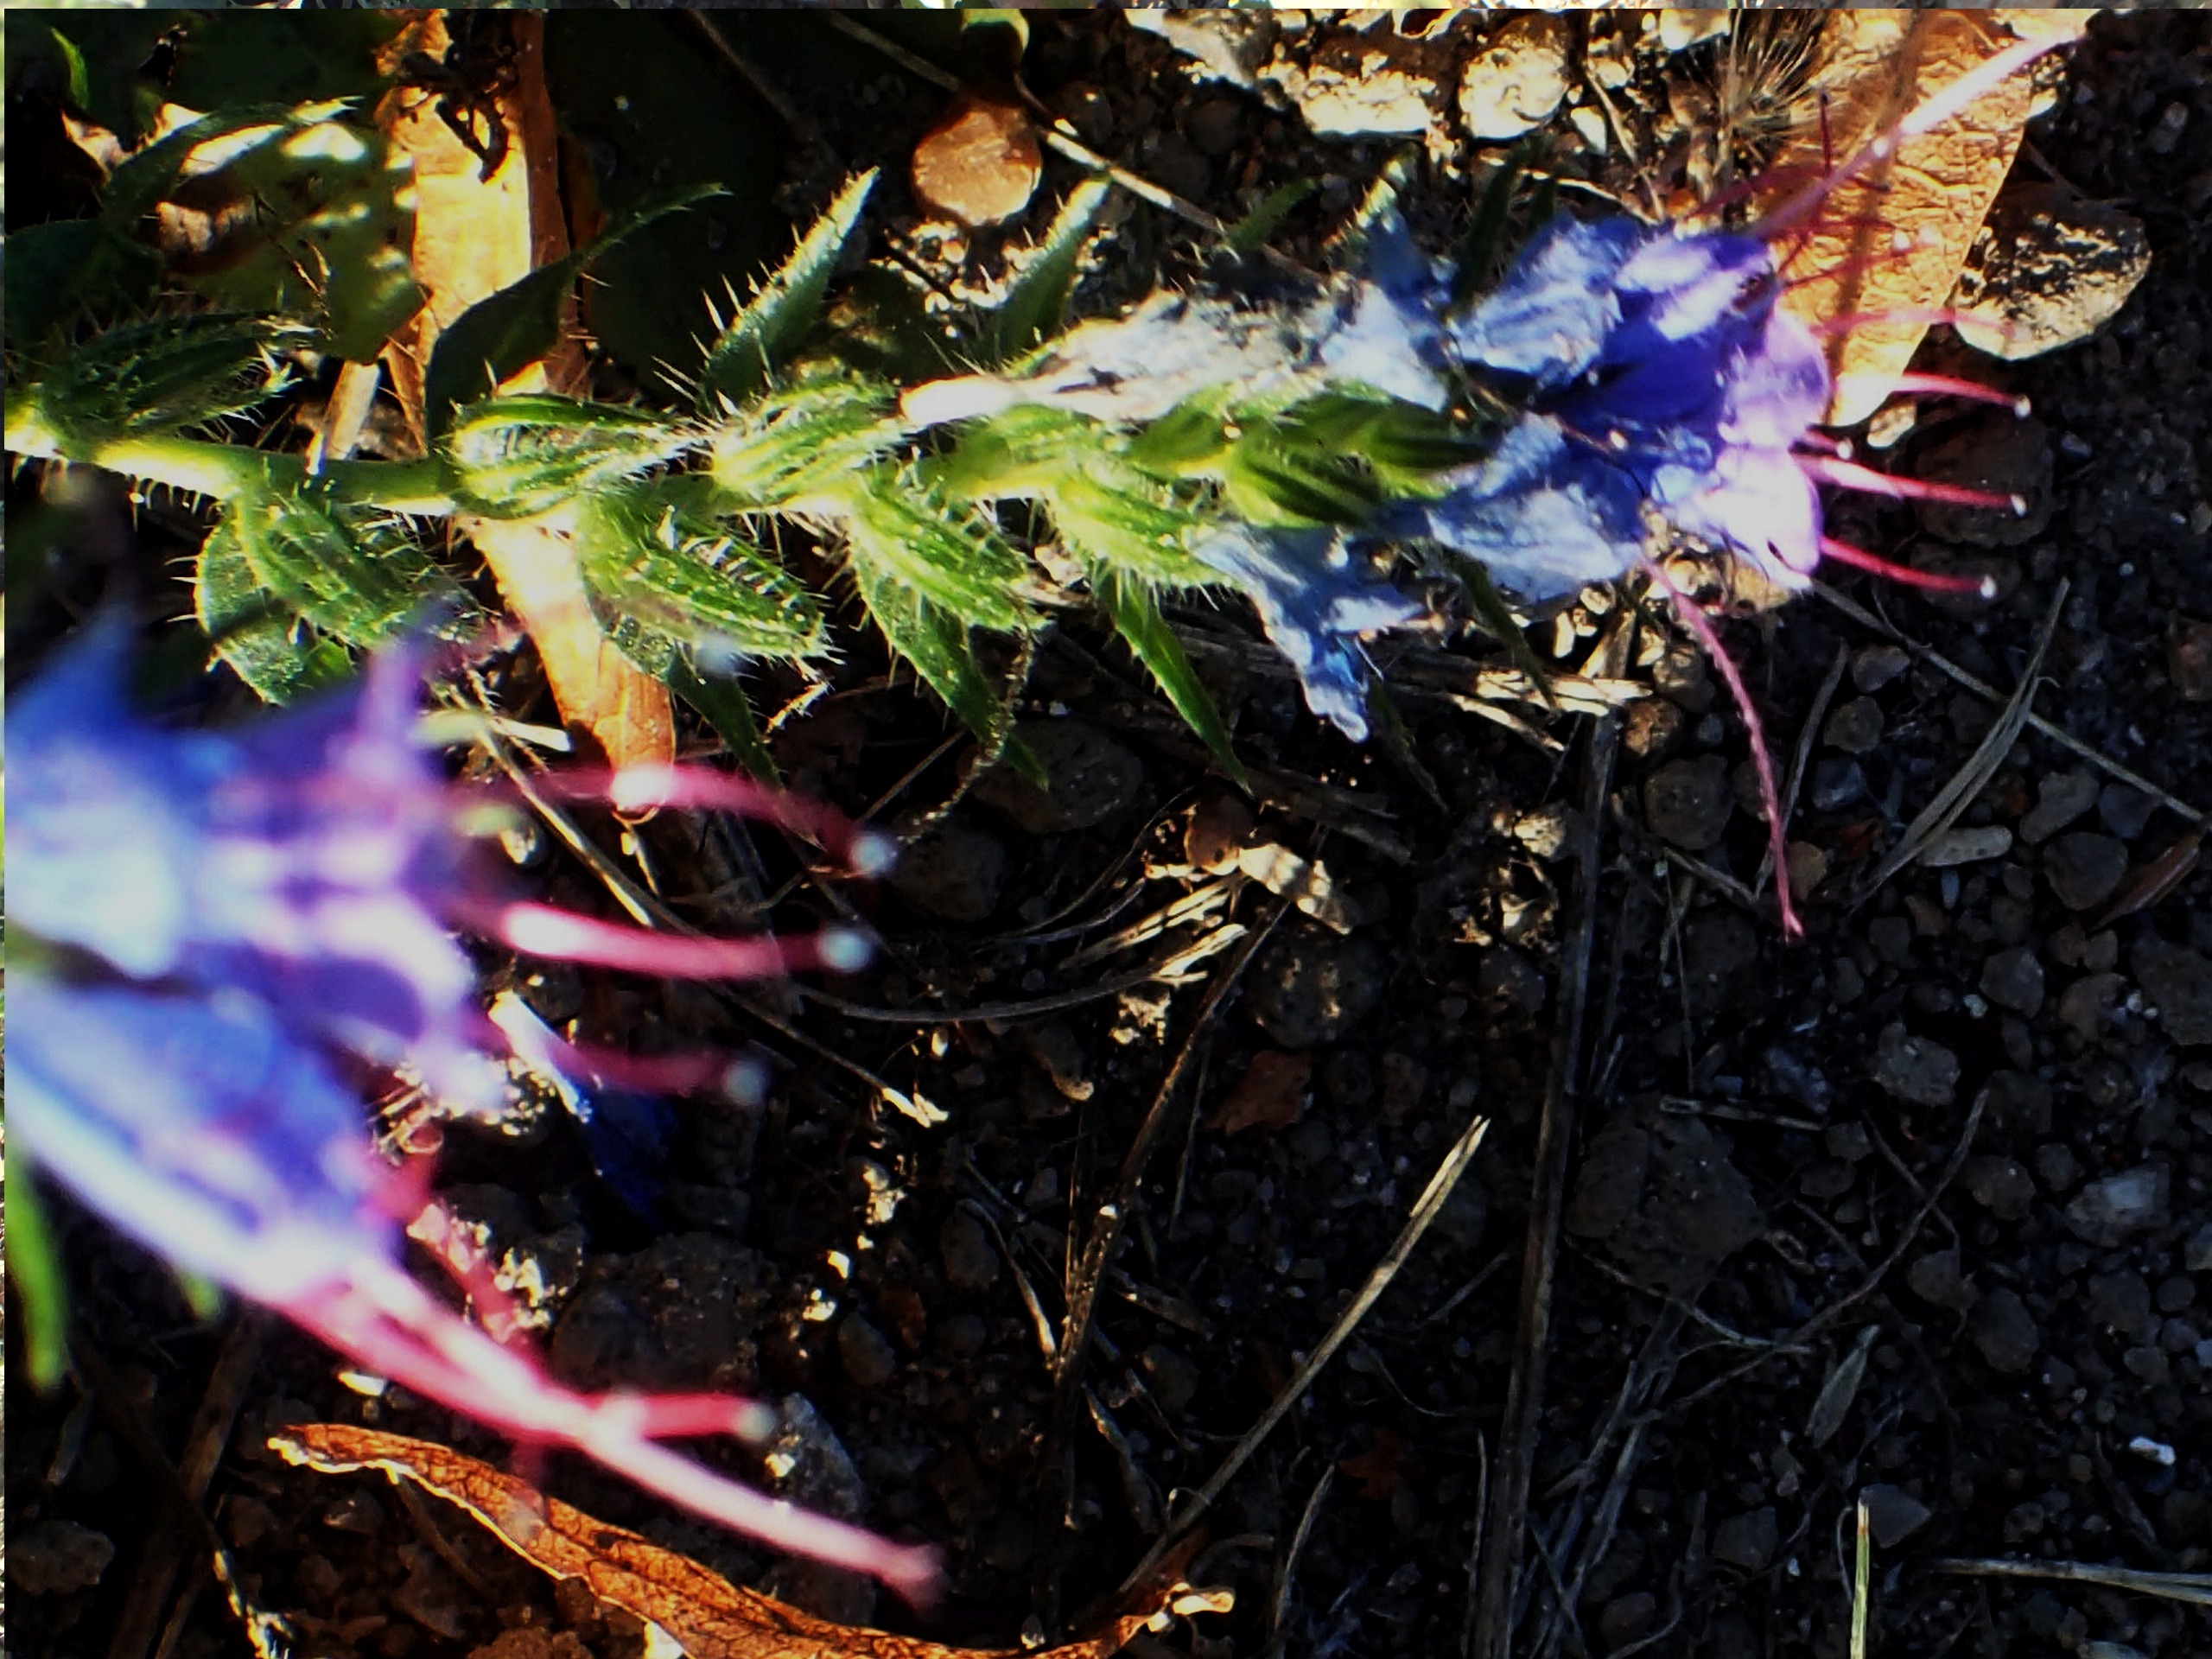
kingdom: Plantae
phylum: Tracheophyta
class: Magnoliopsida
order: Boraginales
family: Boraginaceae
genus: Echium
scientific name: Echium vulgare
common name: Slangehoved
